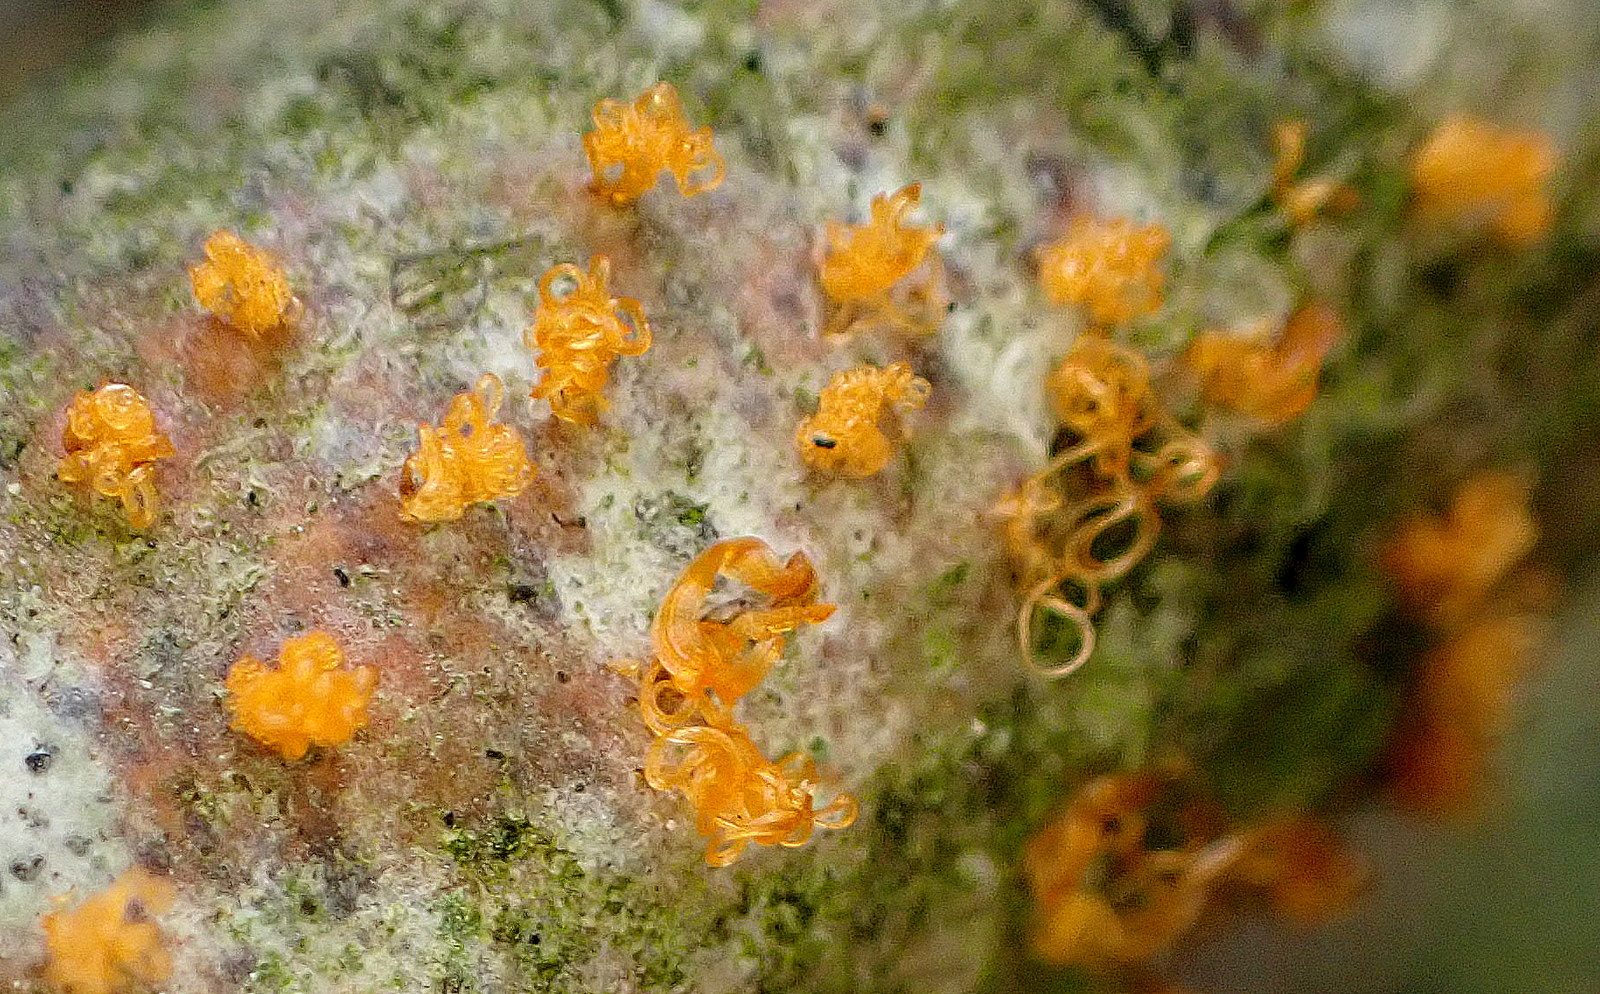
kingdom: Fungi
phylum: Ascomycota
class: Sordariomycetes
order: Xylariales
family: Diatrypaceae
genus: Eutypella
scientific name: Eutypella quaternata
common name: bøge-korsprik
